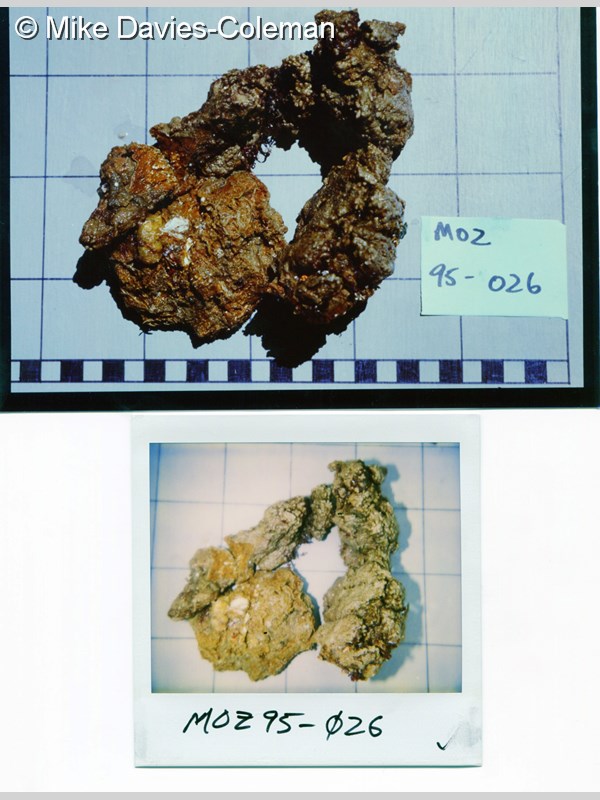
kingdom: Animalia
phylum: Porifera
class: Demospongiae
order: Bubarida
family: Dictyonellidae
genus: Dictyonella
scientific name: Dictyonella
